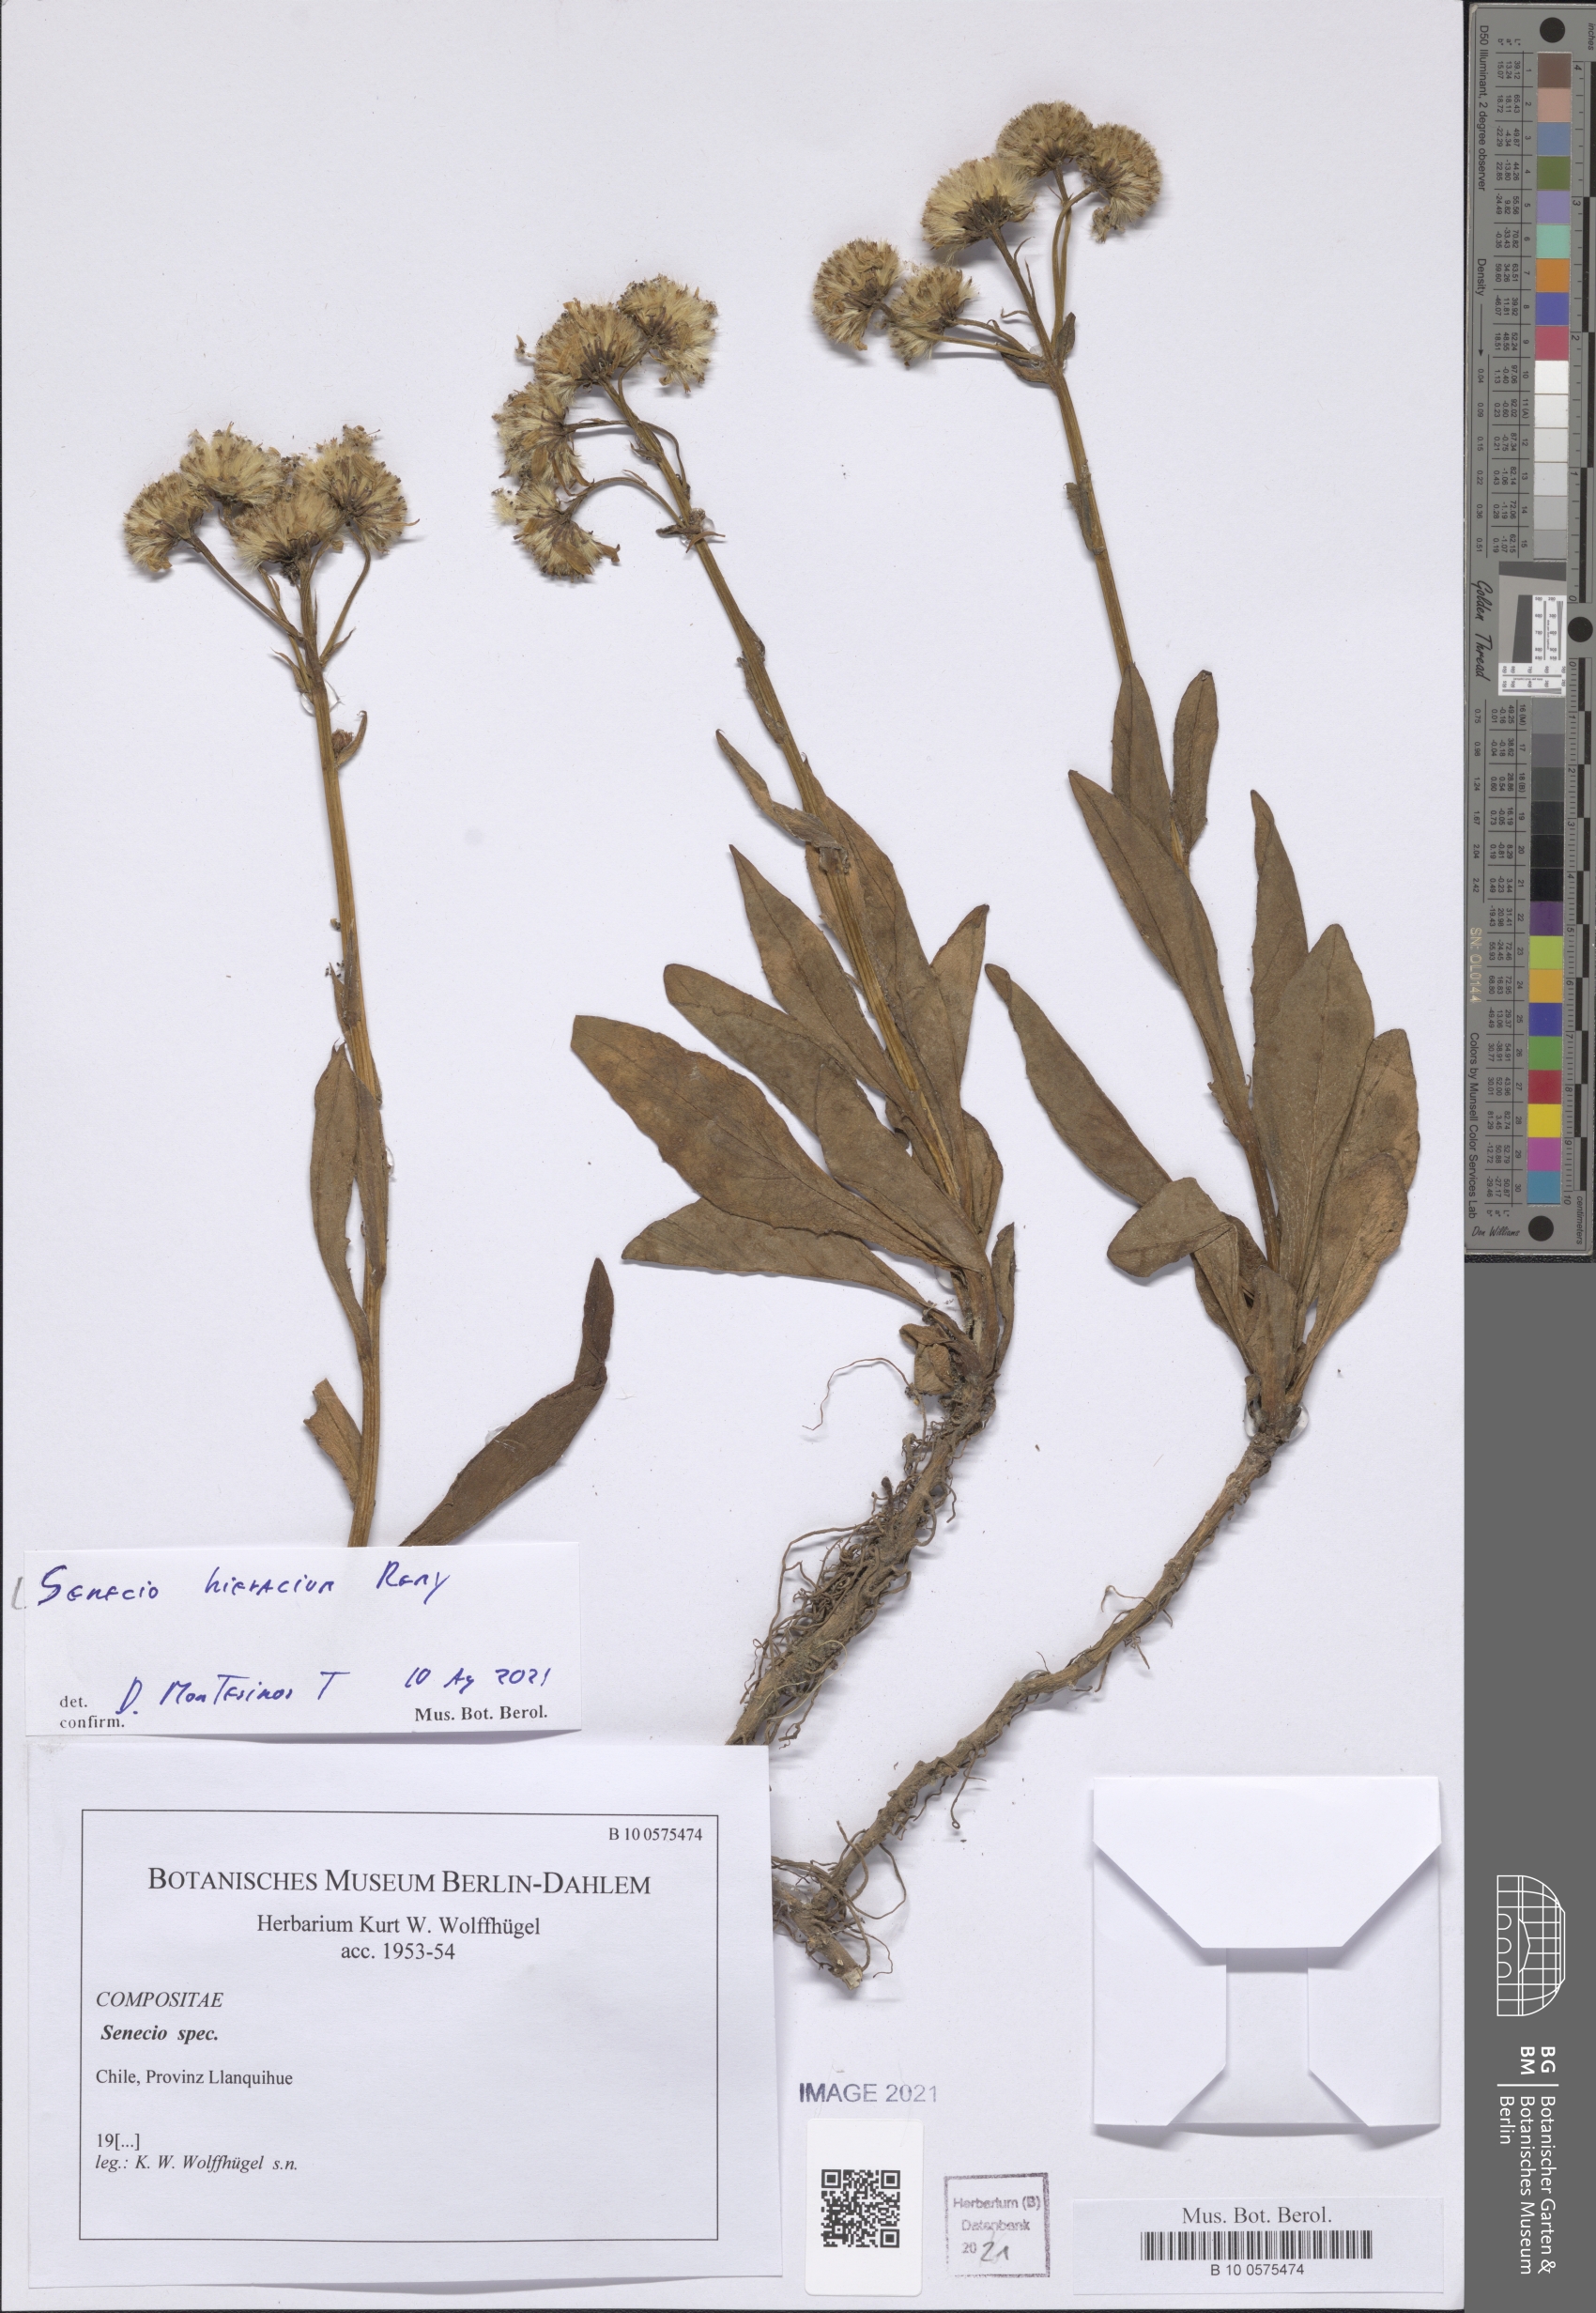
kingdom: Plantae
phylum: Tracheophyta
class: Magnoliopsida
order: Asterales
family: Asteraceae
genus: Senecio
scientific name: Senecio hieracium
